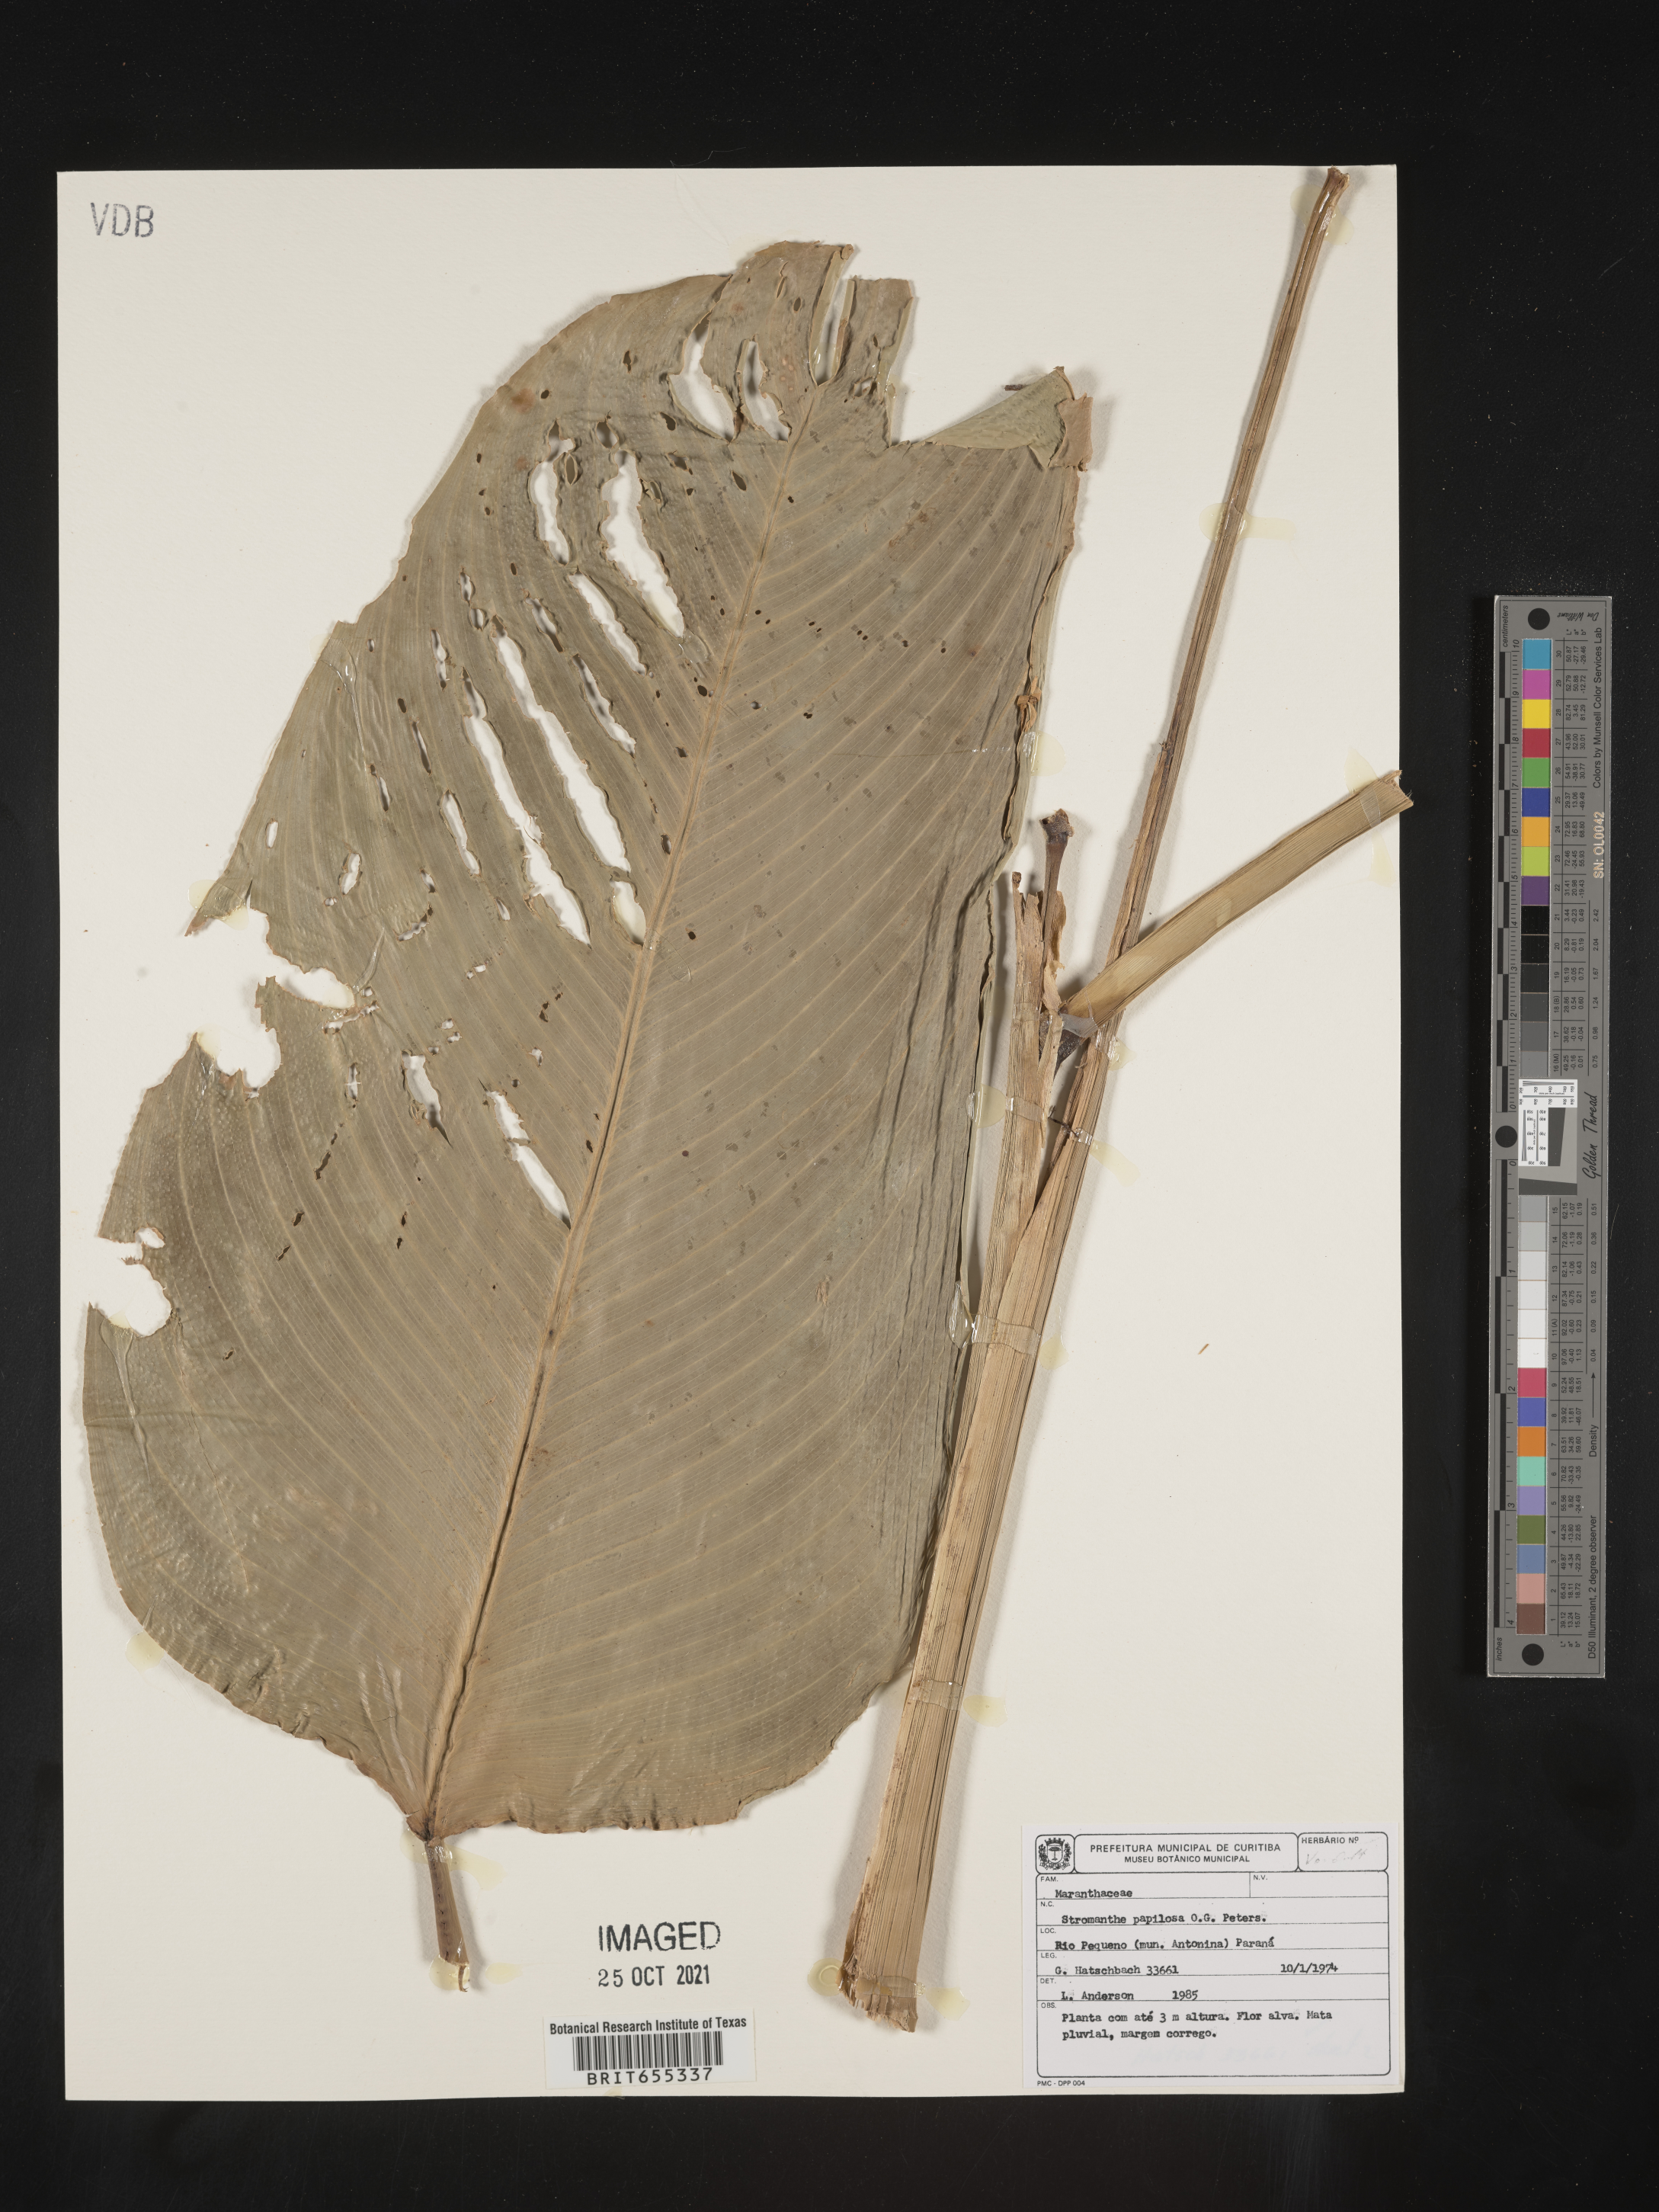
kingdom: Plantae
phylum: Tracheophyta
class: Liliopsida
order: Zingiberales
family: Marantaceae
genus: Stromanthe
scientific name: Stromanthe
